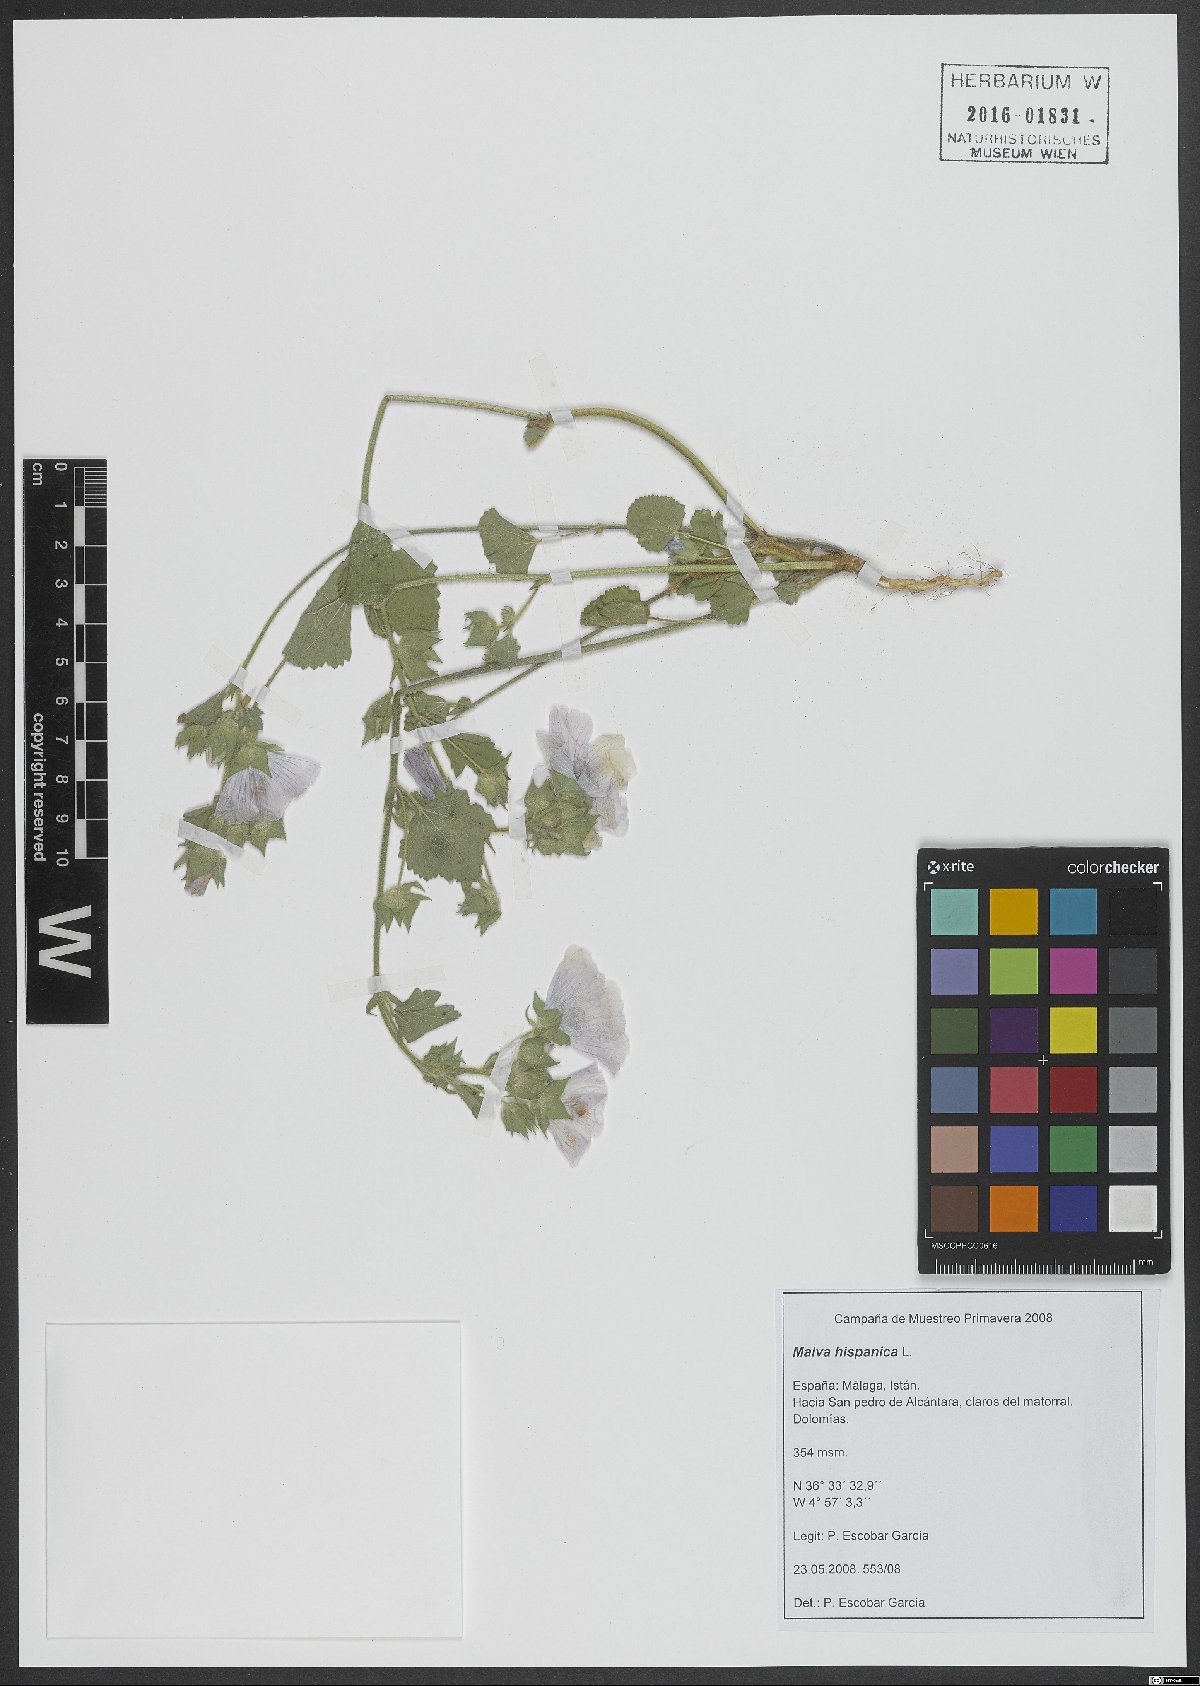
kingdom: Plantae
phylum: Tracheophyta
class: Magnoliopsida
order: Malvales
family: Malvaceae
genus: Malva
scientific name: Malva hispanica
